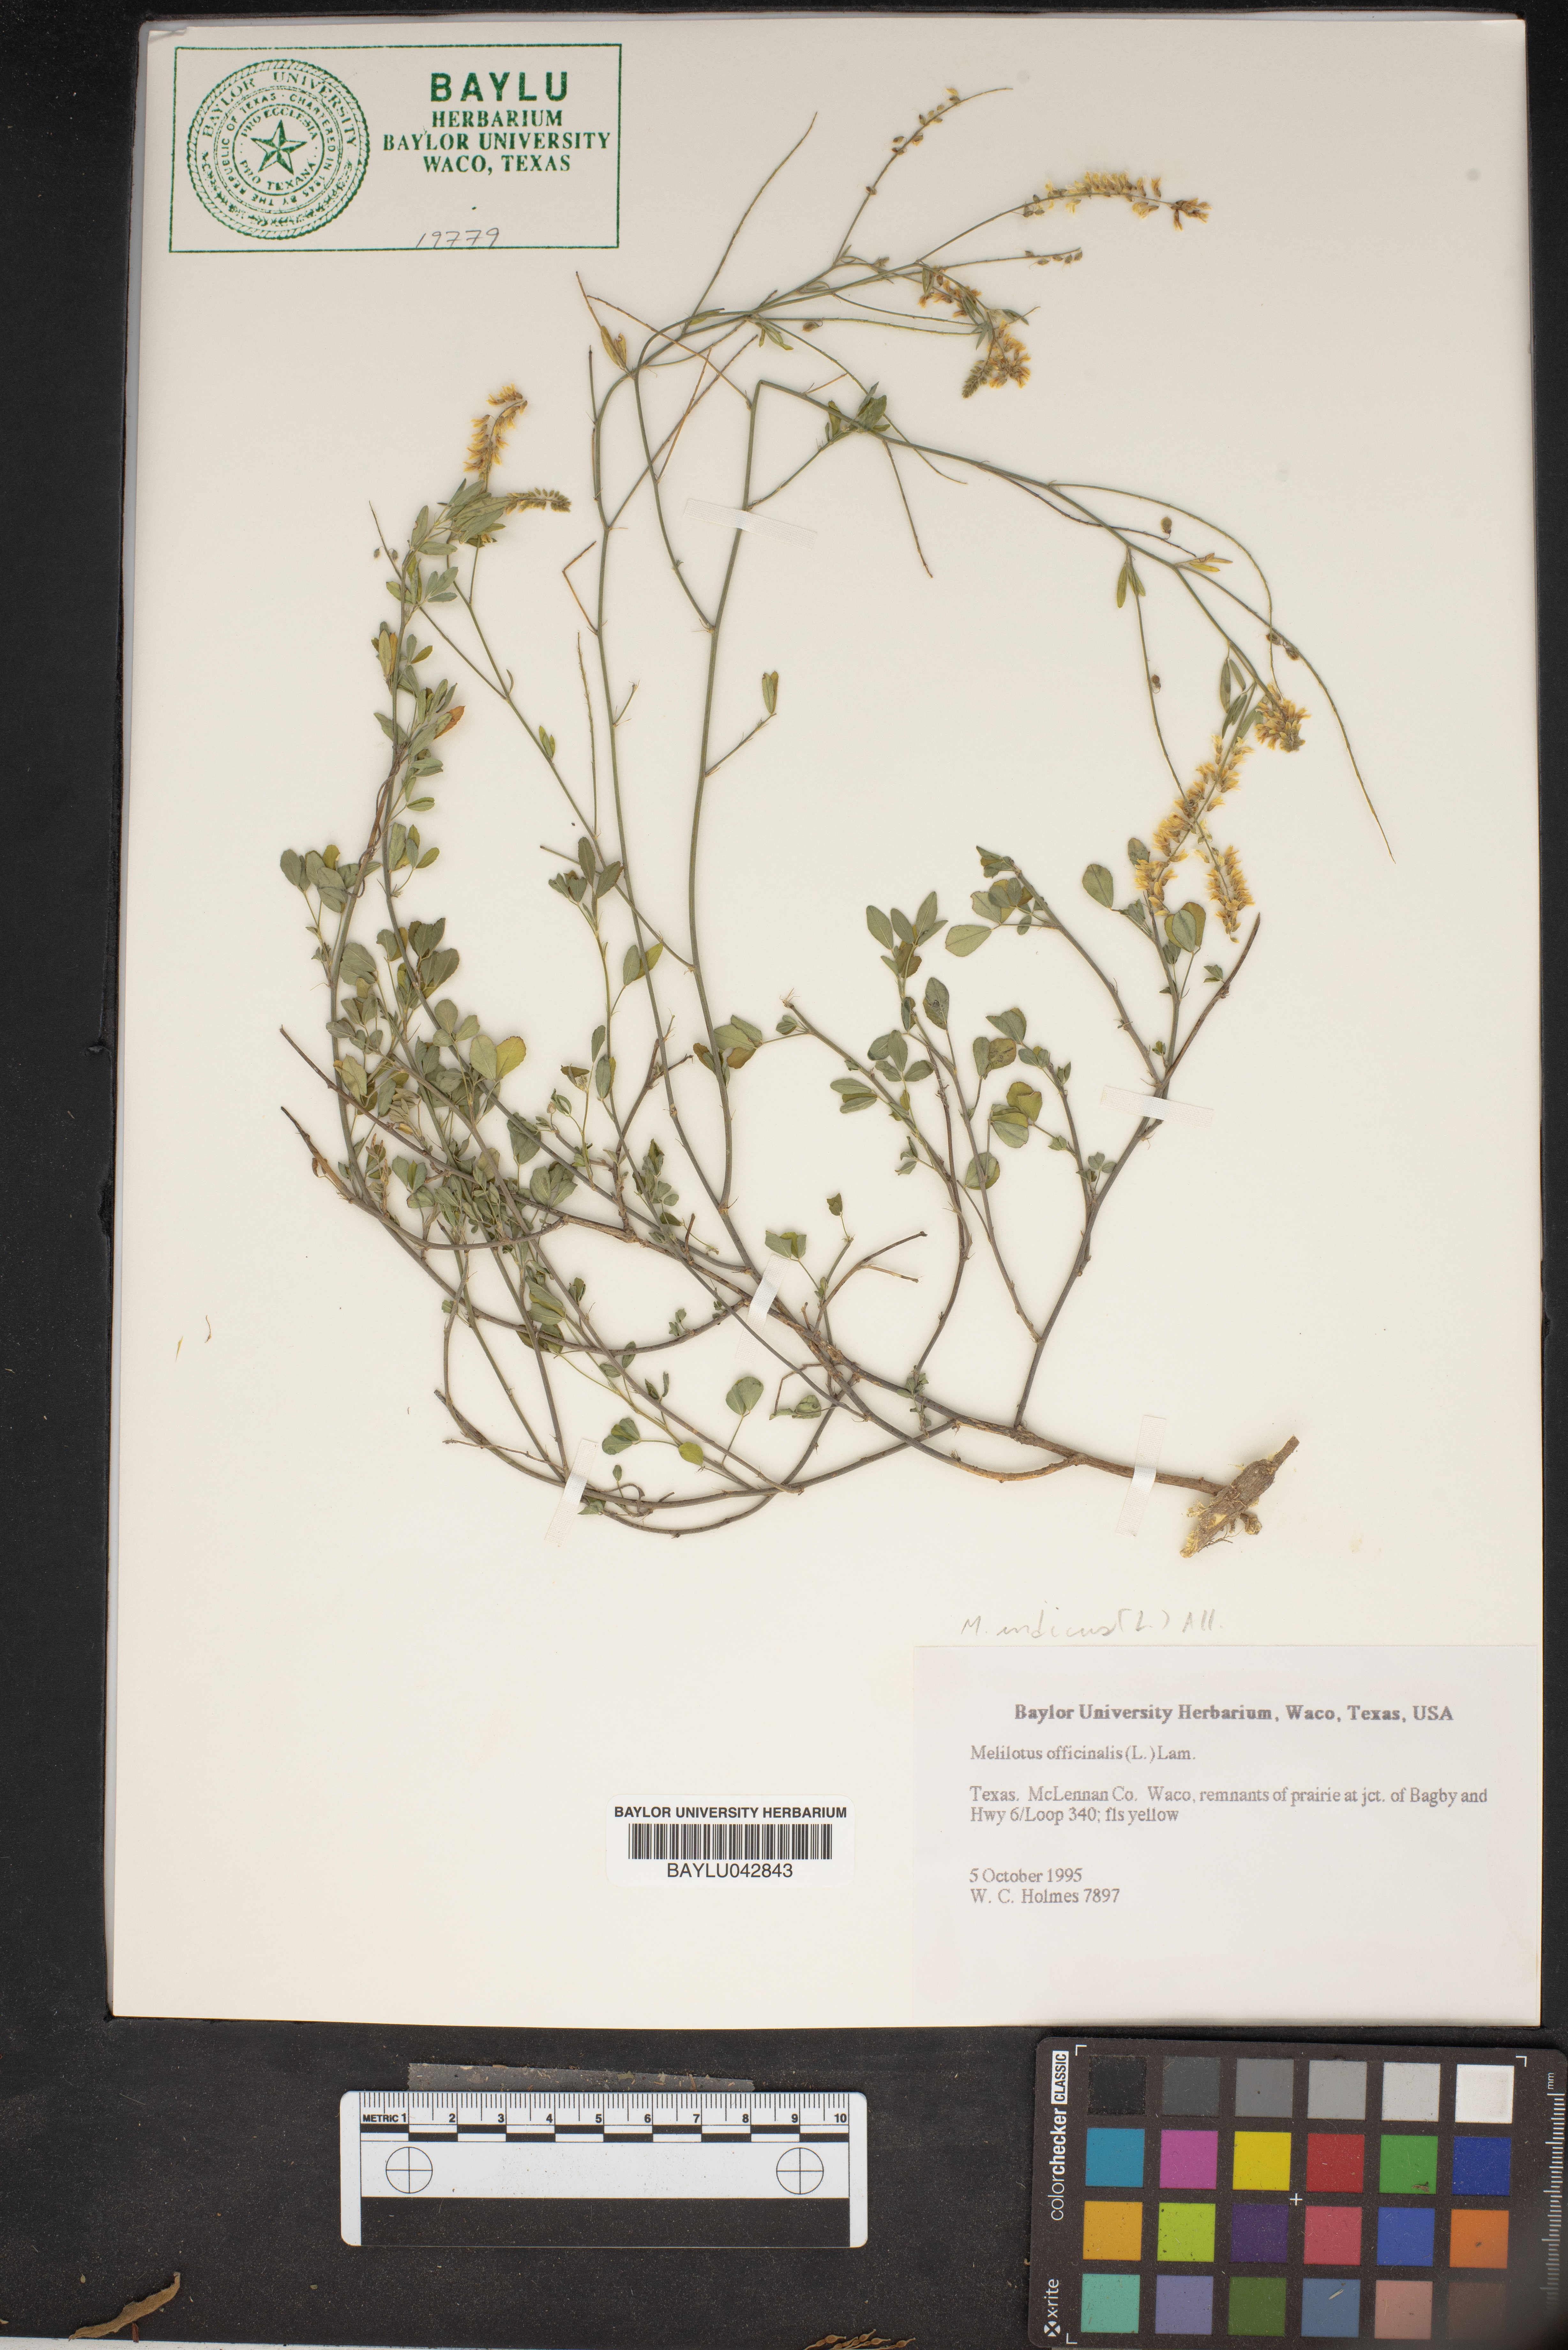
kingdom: Plantae
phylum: Tracheophyta
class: Magnoliopsida
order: Fabales
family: Fabaceae
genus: Melilotus
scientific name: Melilotus officinalis
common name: Sweetclover
